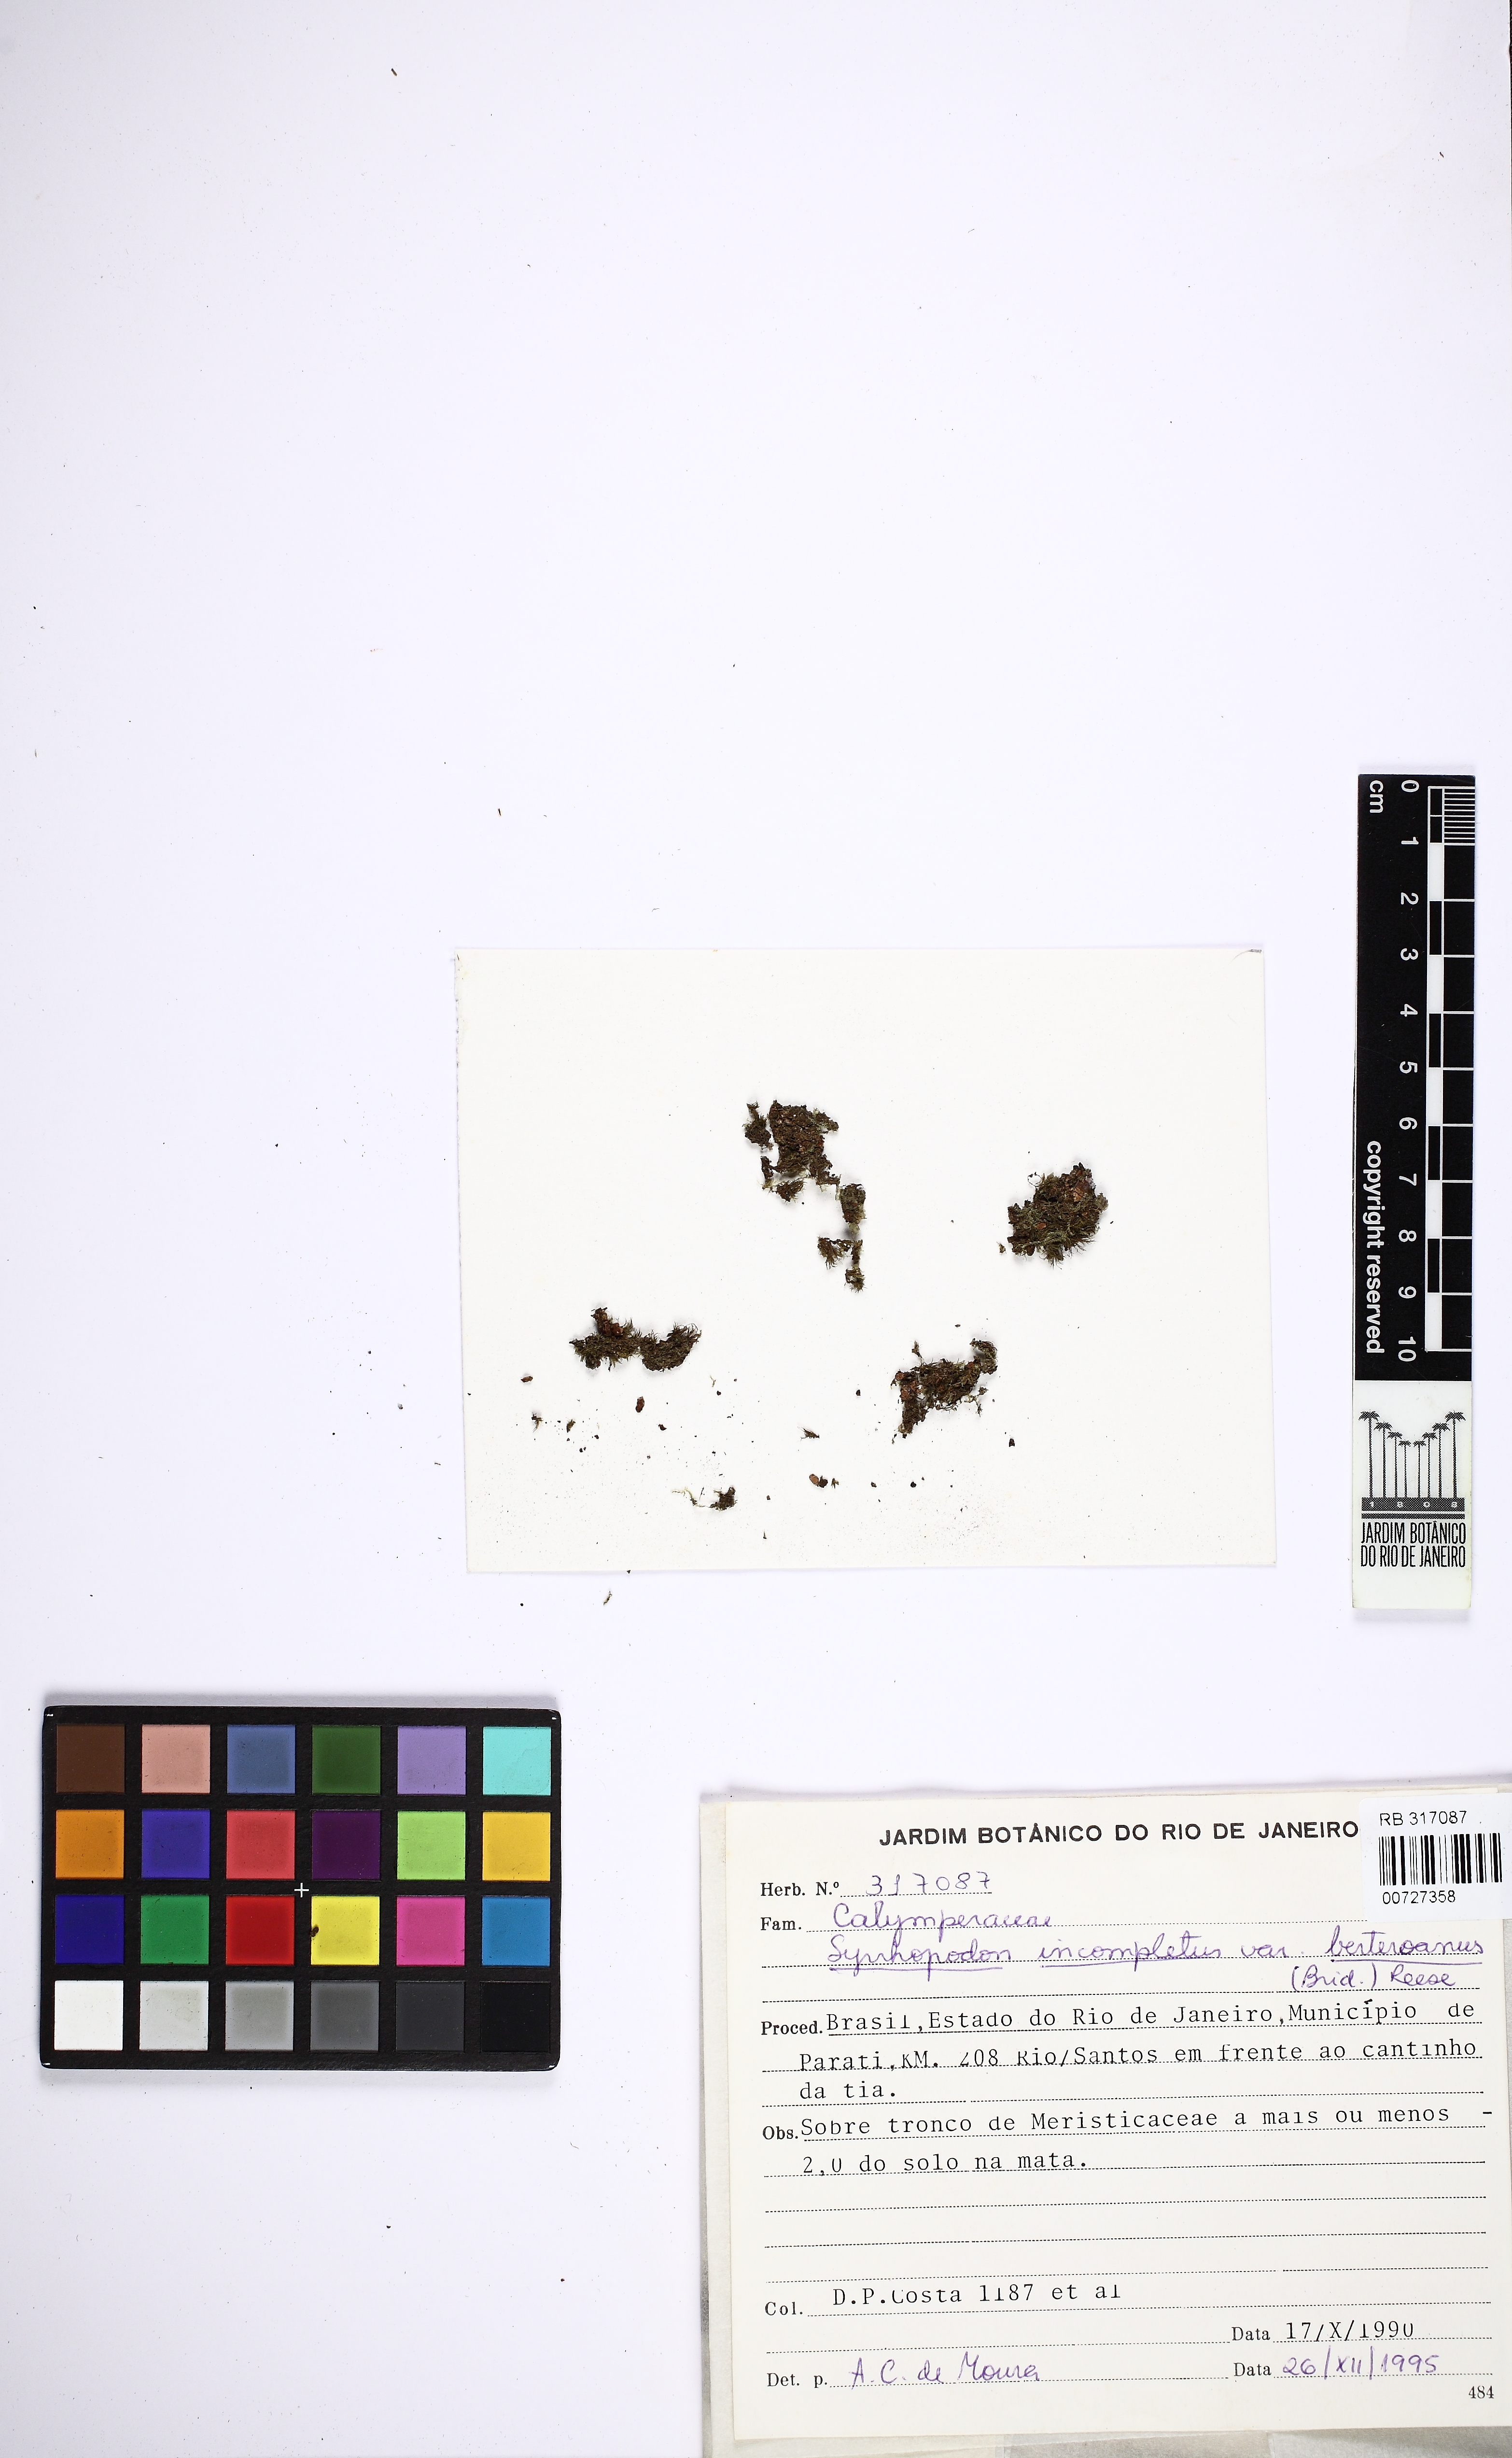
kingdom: Plantae
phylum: Bryophyta
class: Bryopsida
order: Dicranales
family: Calymperaceae
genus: Syrrhopodon
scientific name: Syrrhopodon incompletus
